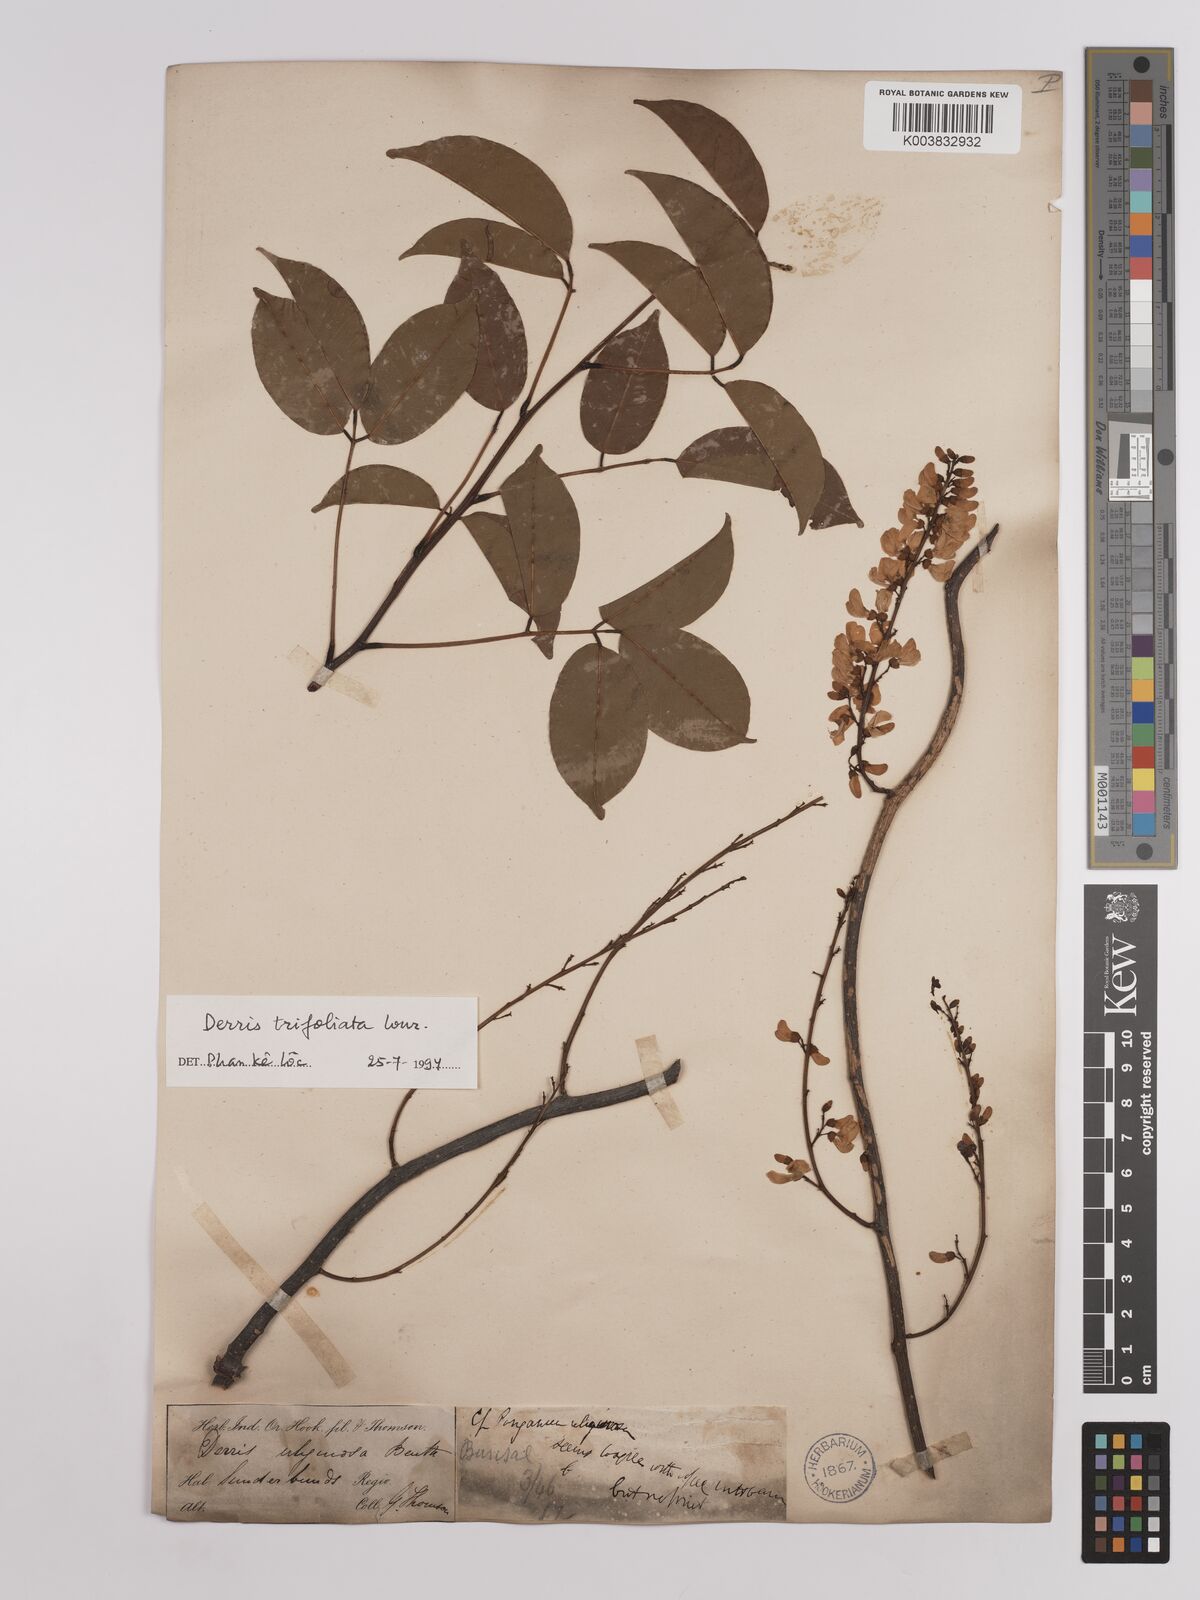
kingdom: Plantae
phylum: Tracheophyta
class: Magnoliopsida
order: Fabales
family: Fabaceae
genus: Derris
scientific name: Derris trifoliata
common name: Three-leaf derris
